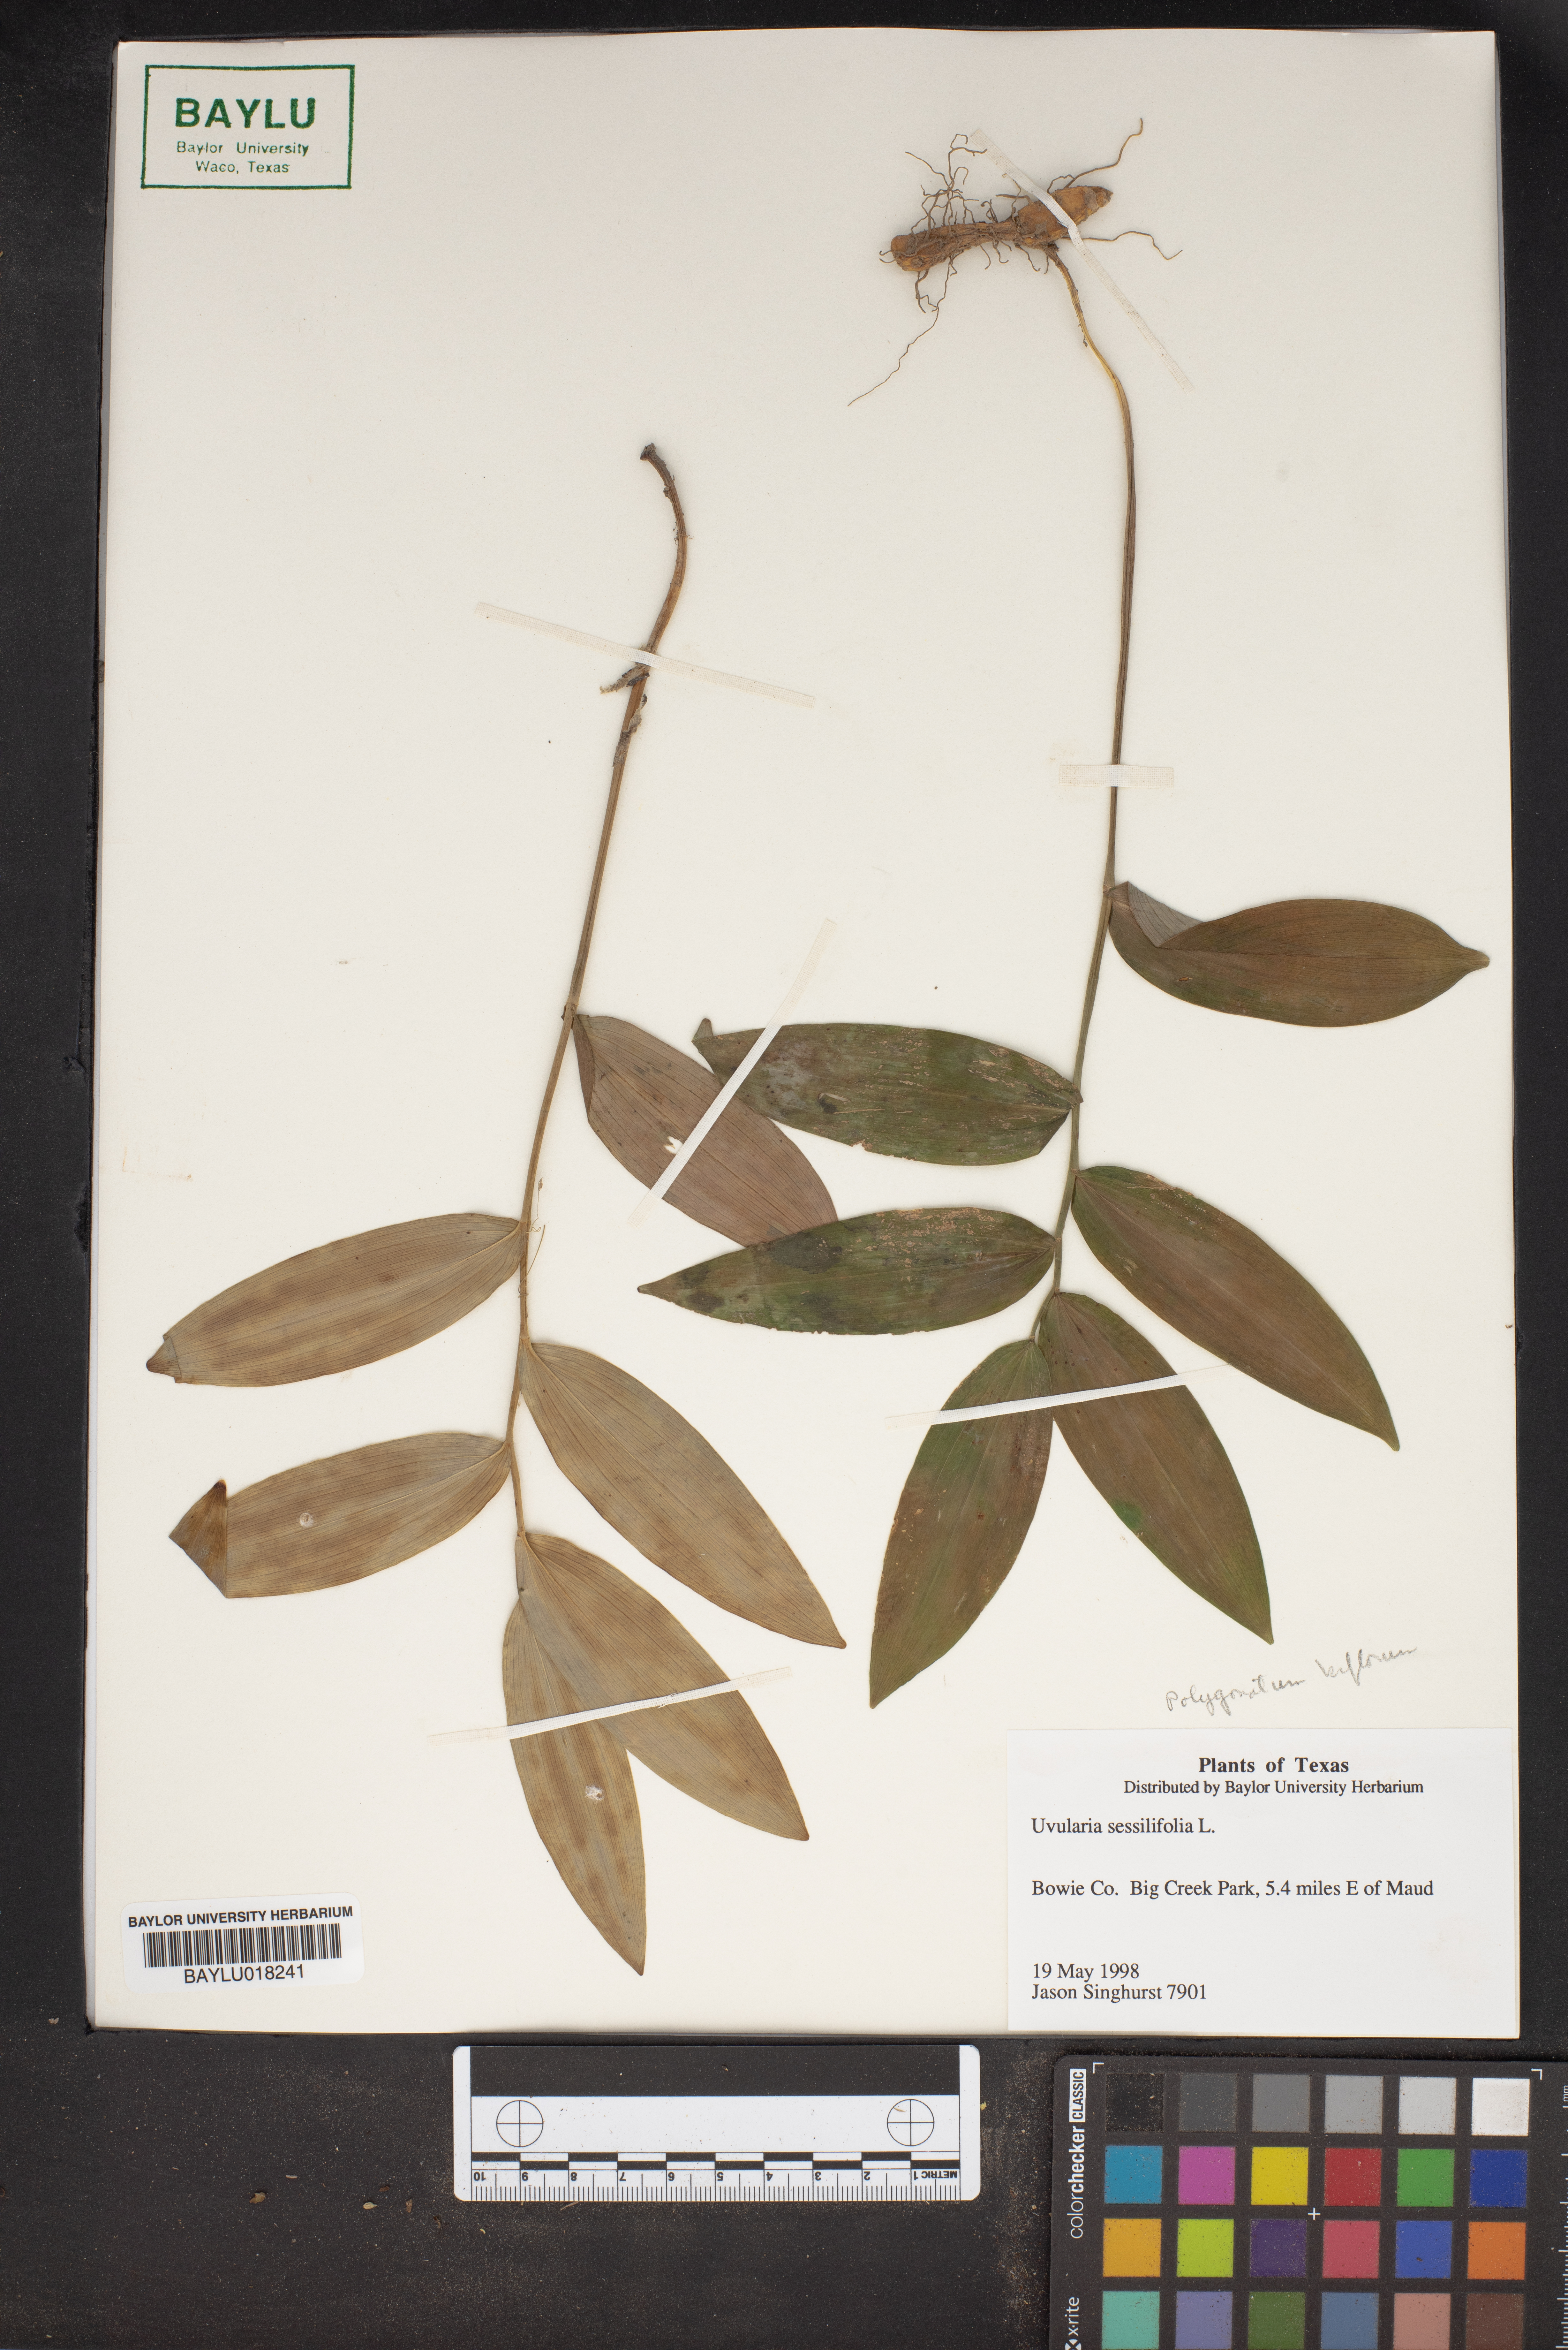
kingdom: Plantae
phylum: Tracheophyta
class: Liliopsida
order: Liliales
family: Colchicaceae
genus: Uvularia
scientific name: Uvularia sessilifolia
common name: Straw-lily
